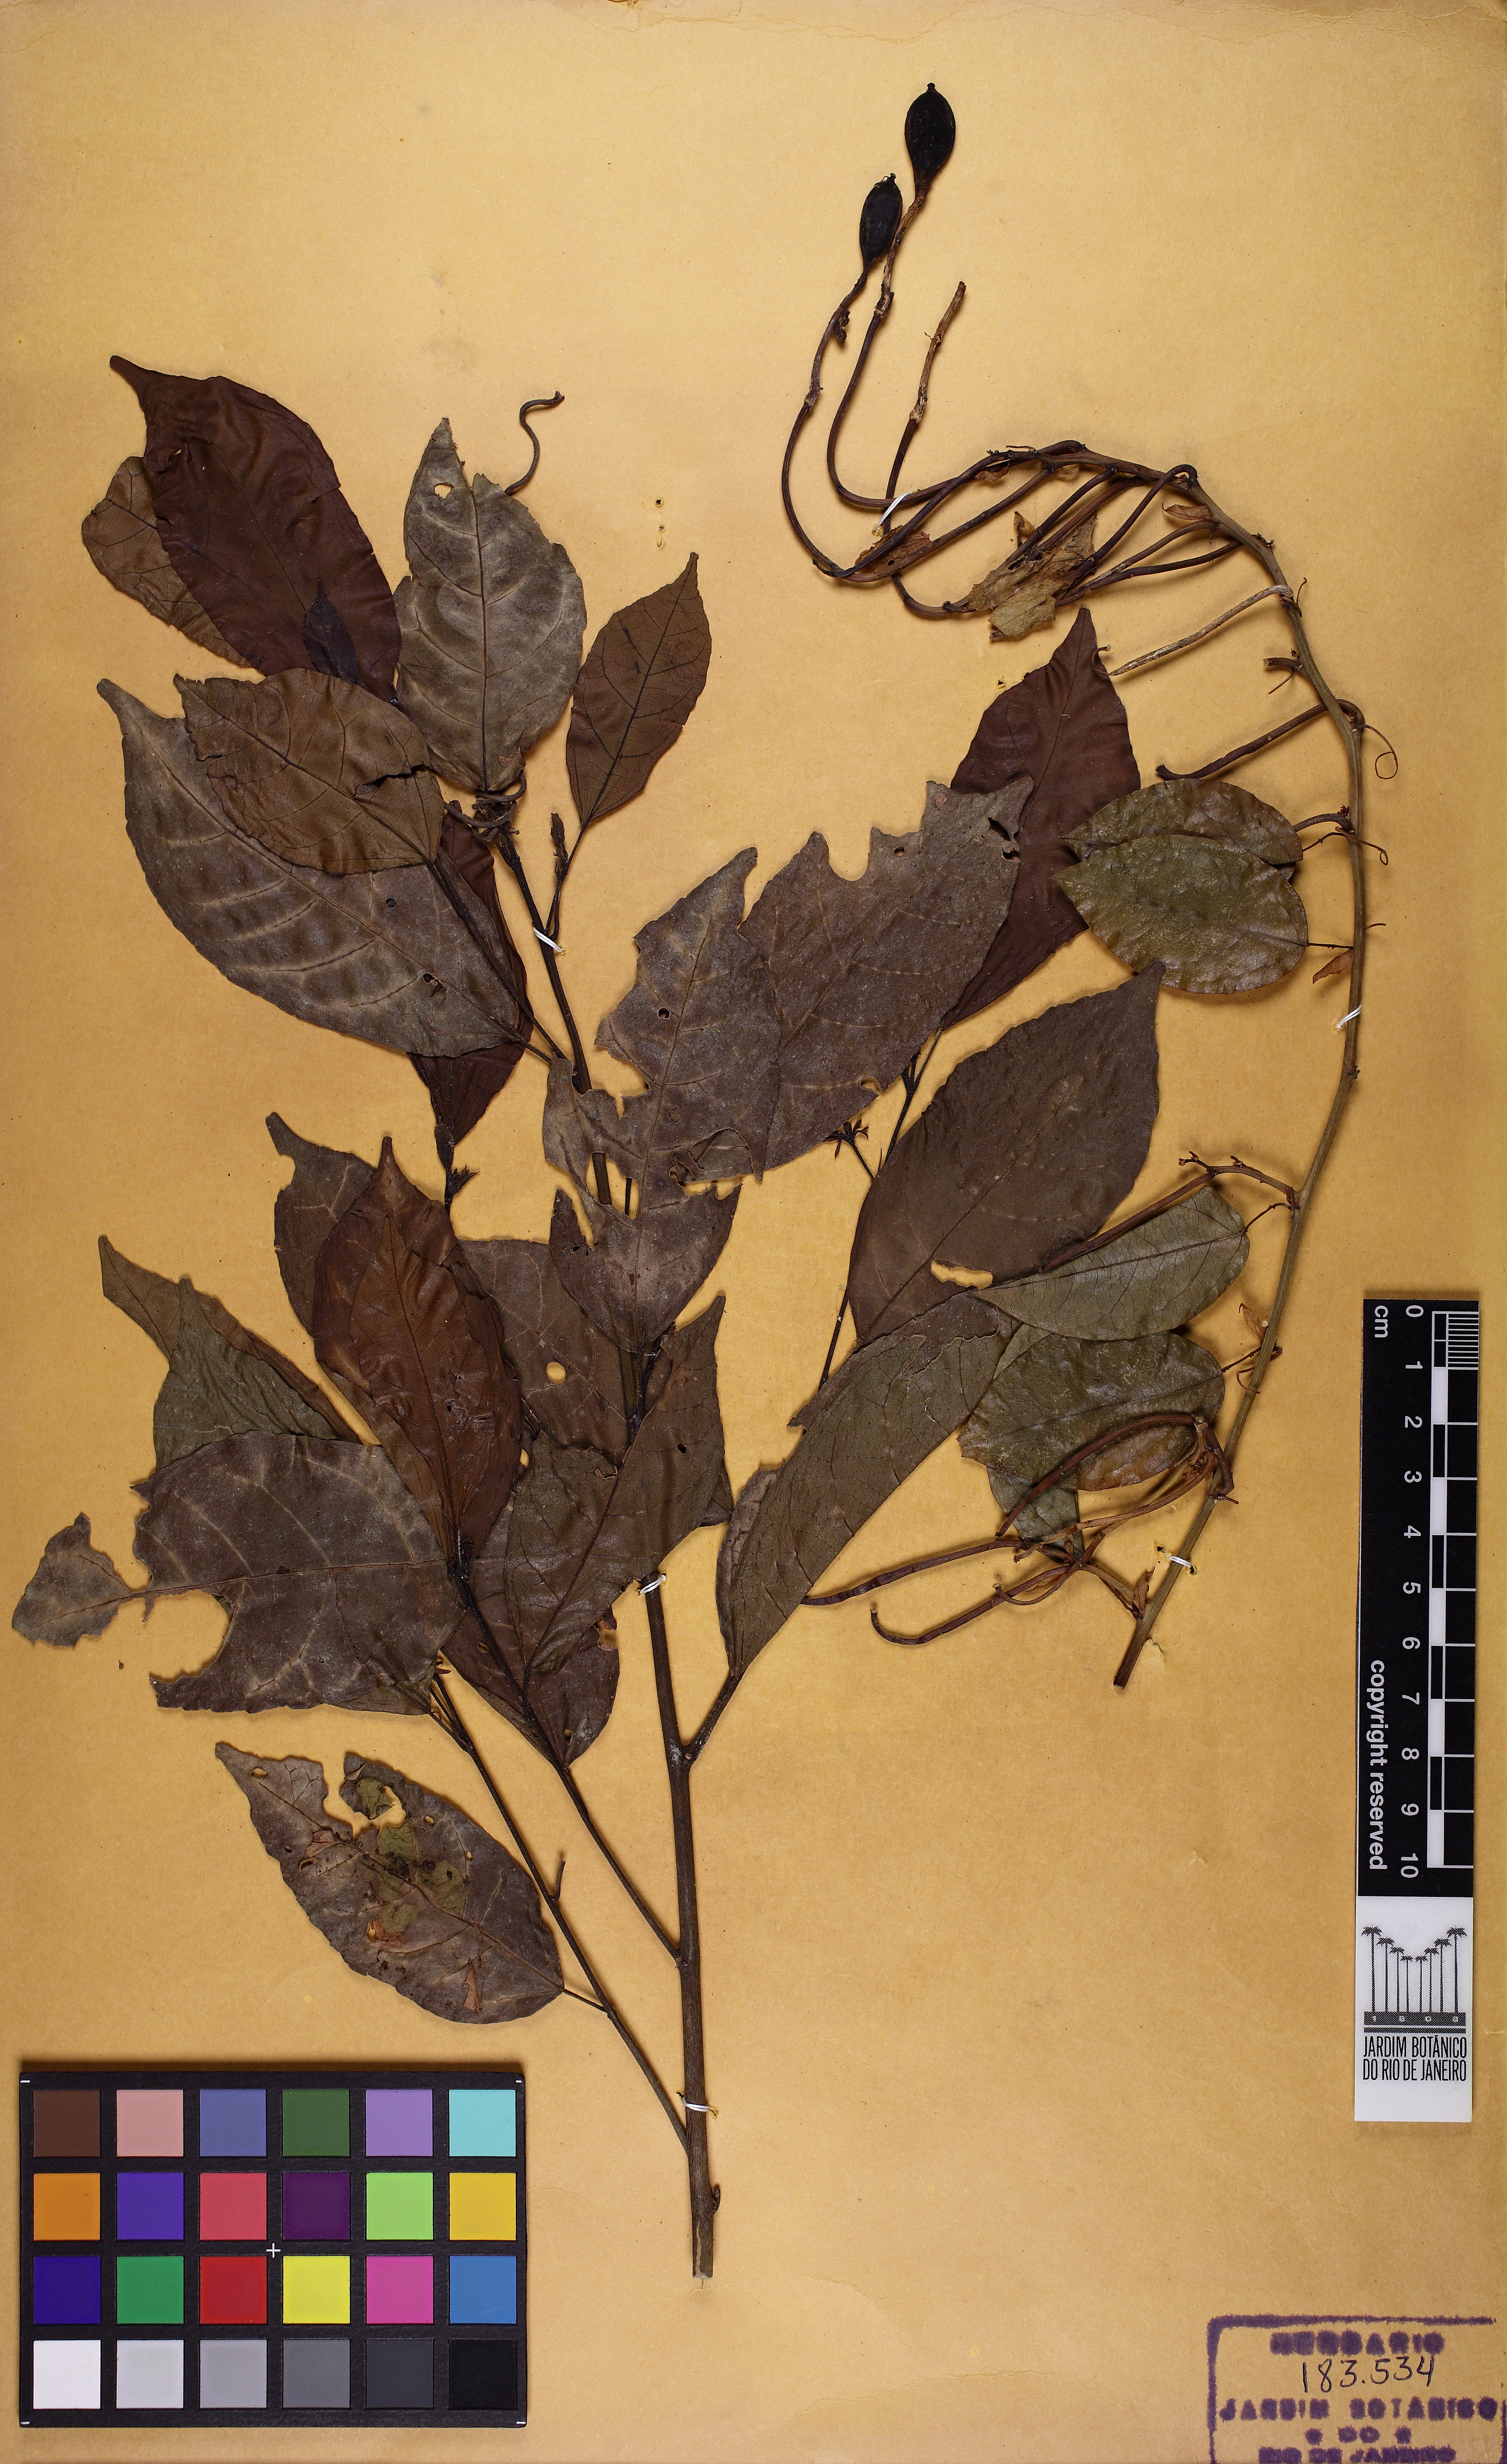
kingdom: Plantae
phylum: Tracheophyta
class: Magnoliopsida
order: Malpighiales
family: Passifloraceae
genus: Passiflora
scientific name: Passiflora silvestris
